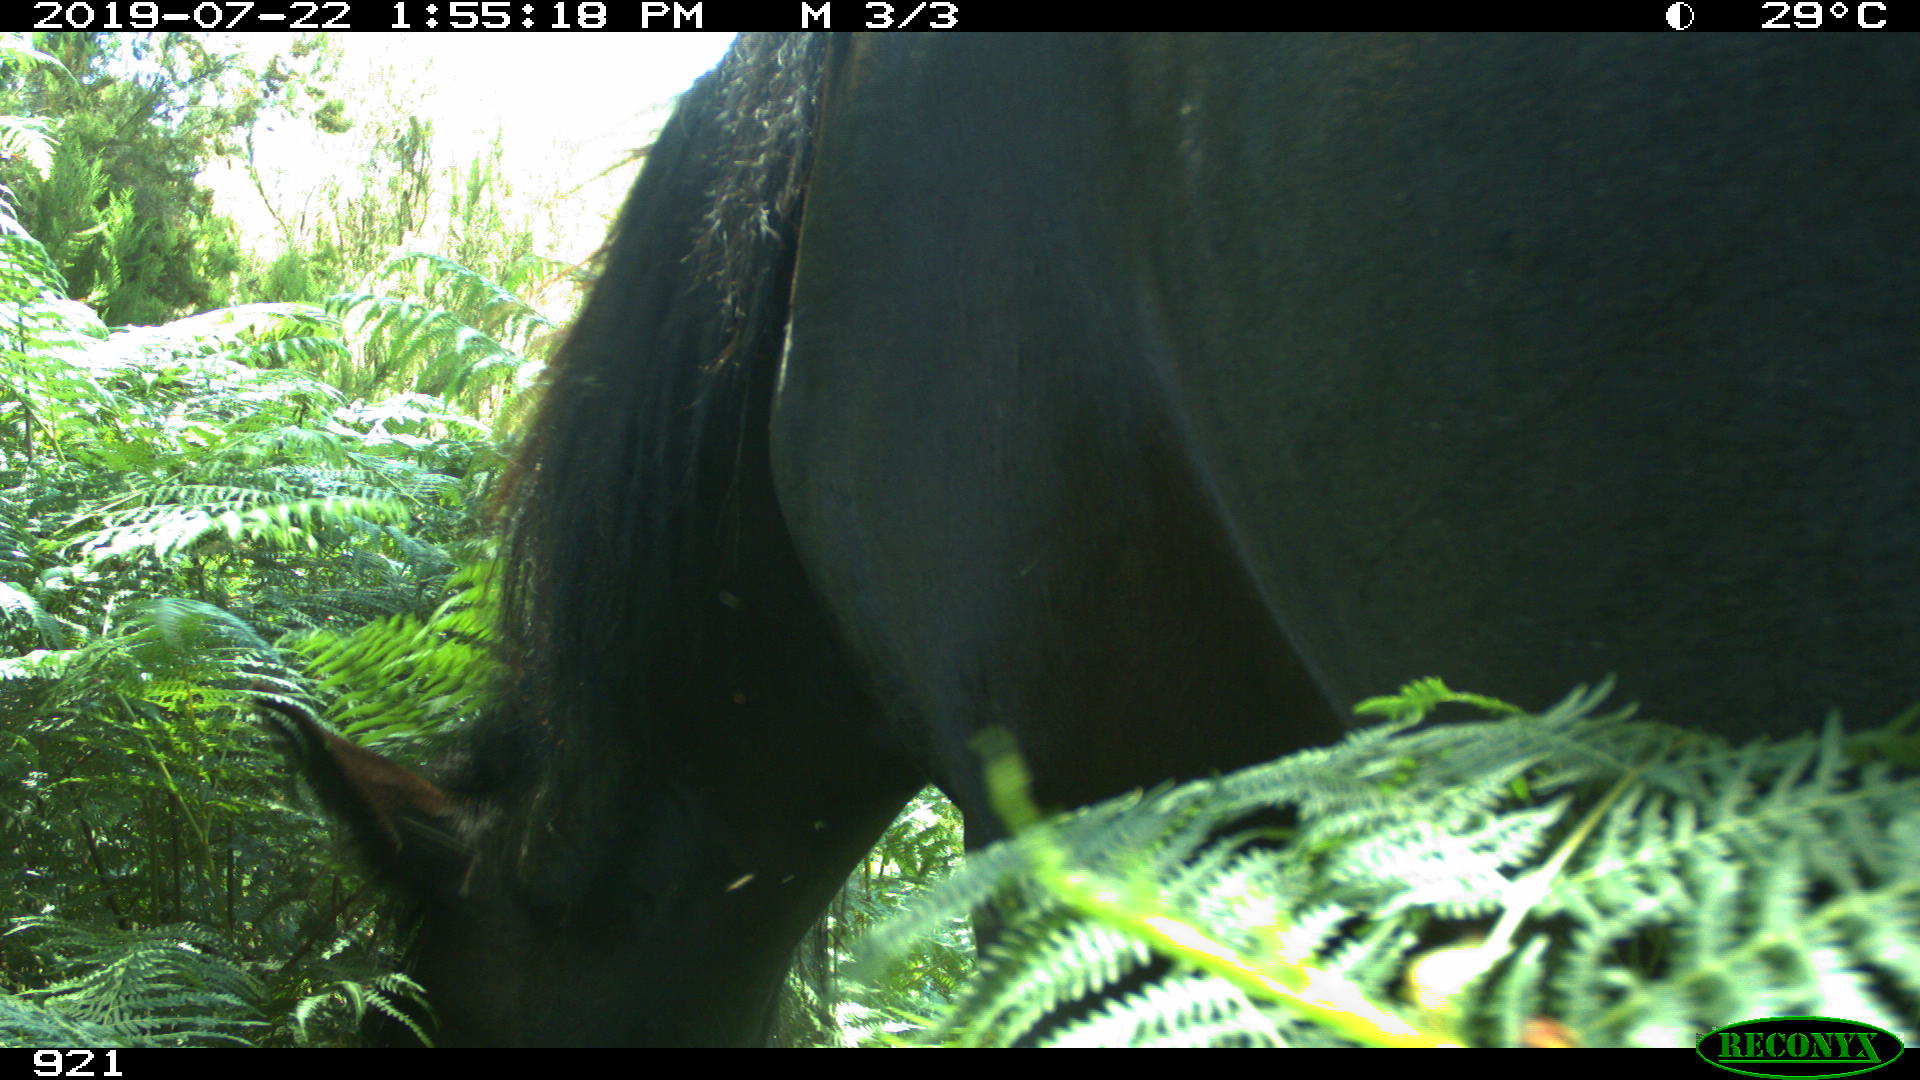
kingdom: Animalia
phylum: Chordata
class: Mammalia
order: Perissodactyla
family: Equidae
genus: Equus
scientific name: Equus caballus
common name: Horse
